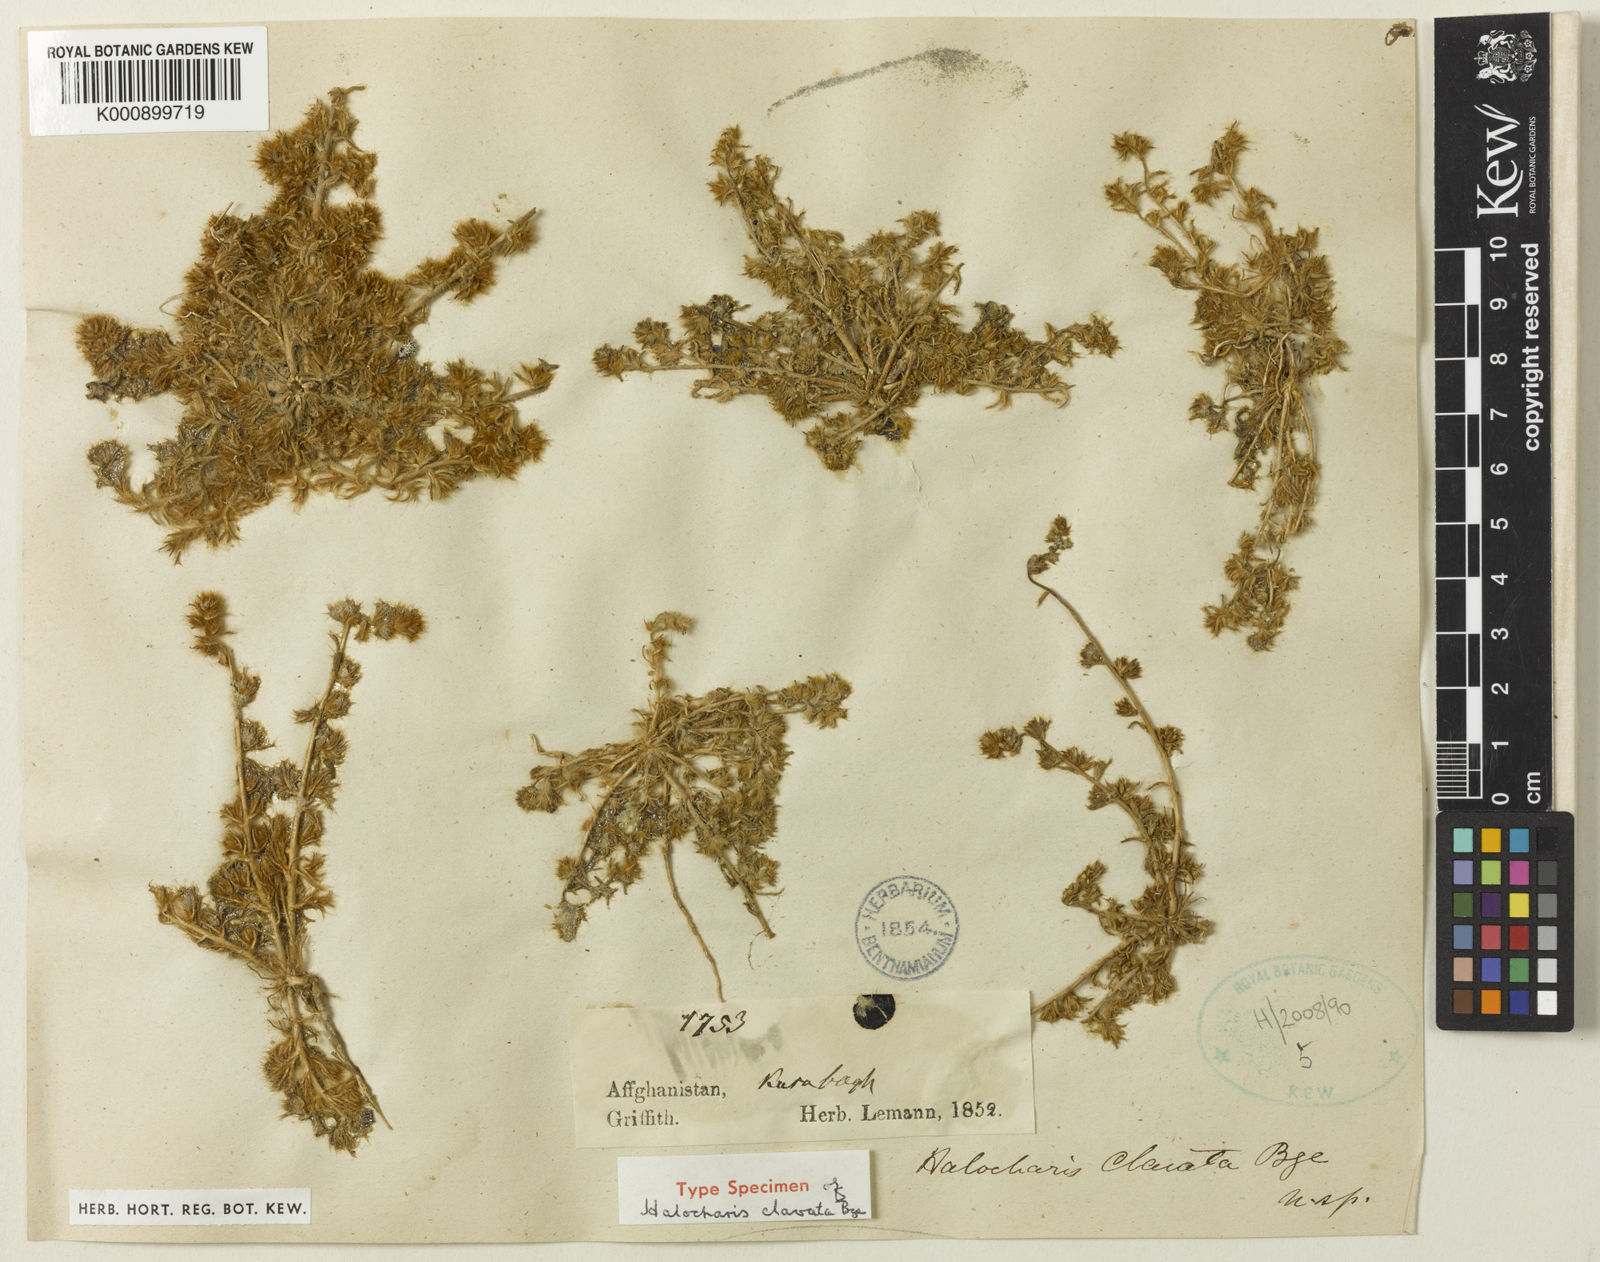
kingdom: Plantae
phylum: Tracheophyta
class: Magnoliopsida
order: Caryophyllales
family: Amaranthaceae
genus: Halocharis
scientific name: Halocharis clavata
